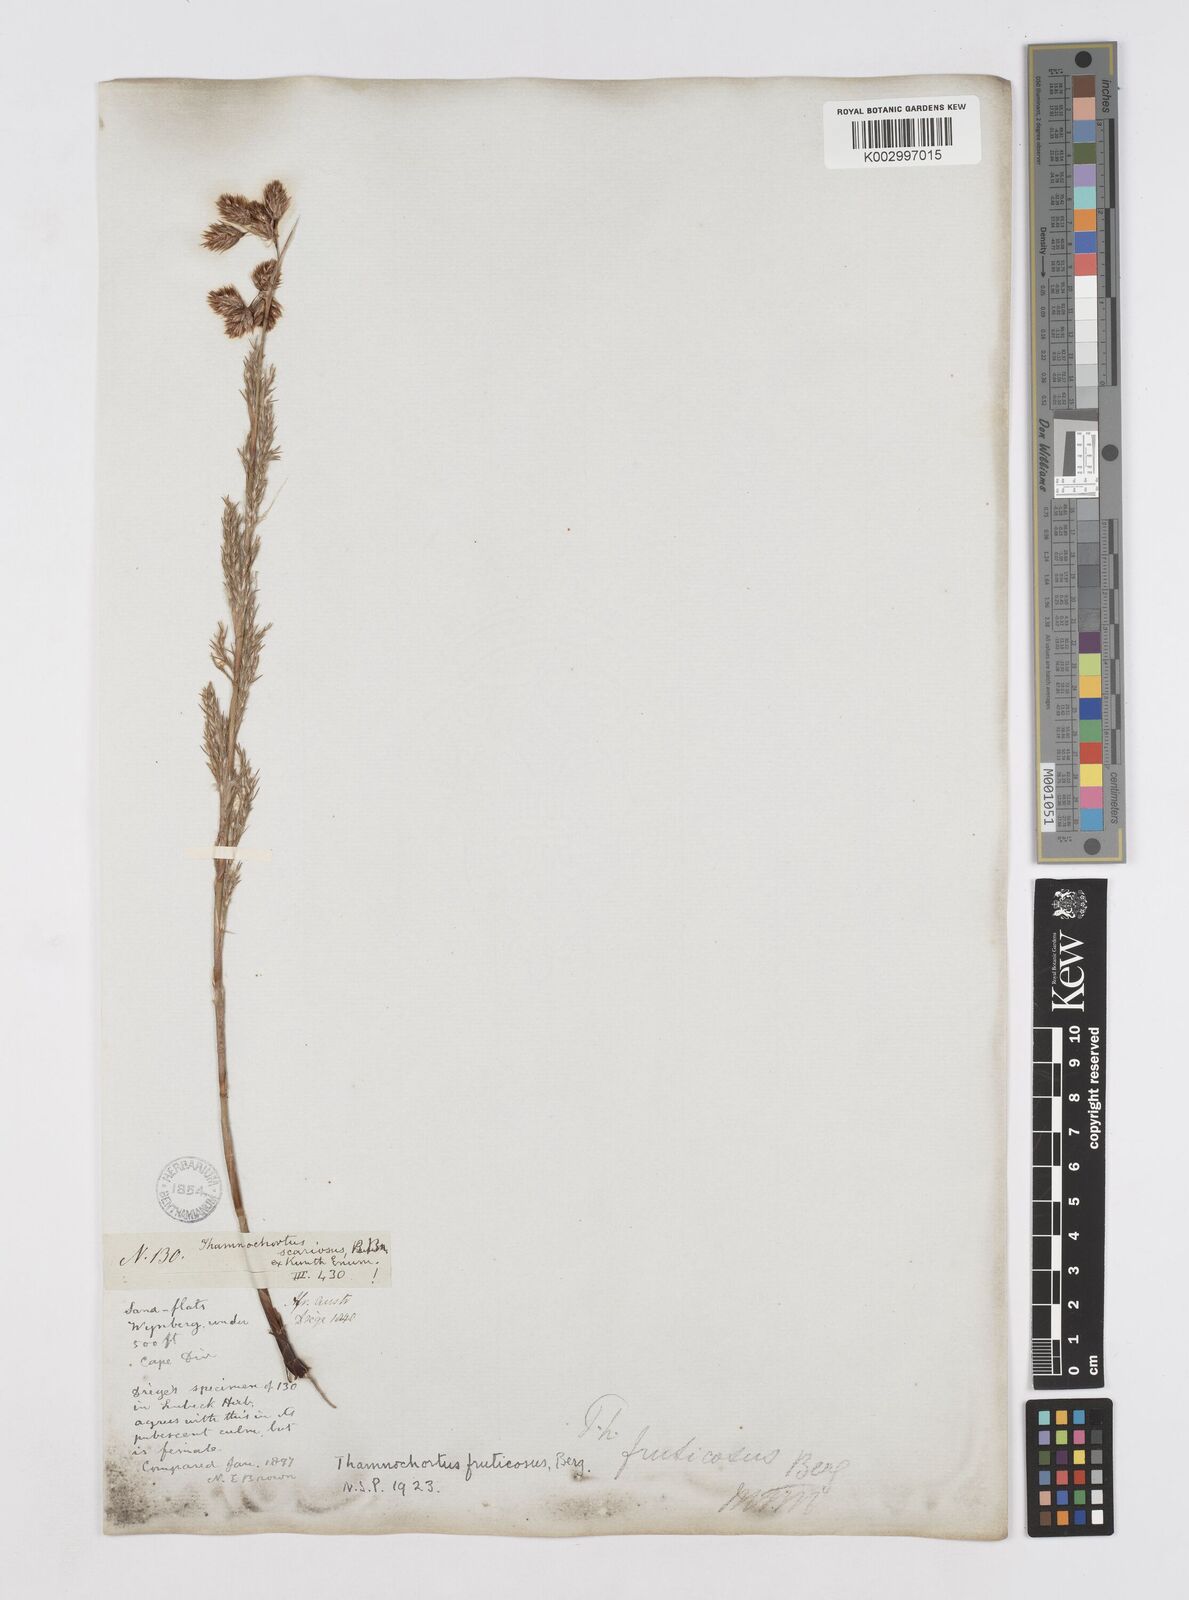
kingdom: Plantae
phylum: Tracheophyta
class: Liliopsida
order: Poales
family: Restionaceae
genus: Thamnochortus
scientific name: Thamnochortus fruticosus
